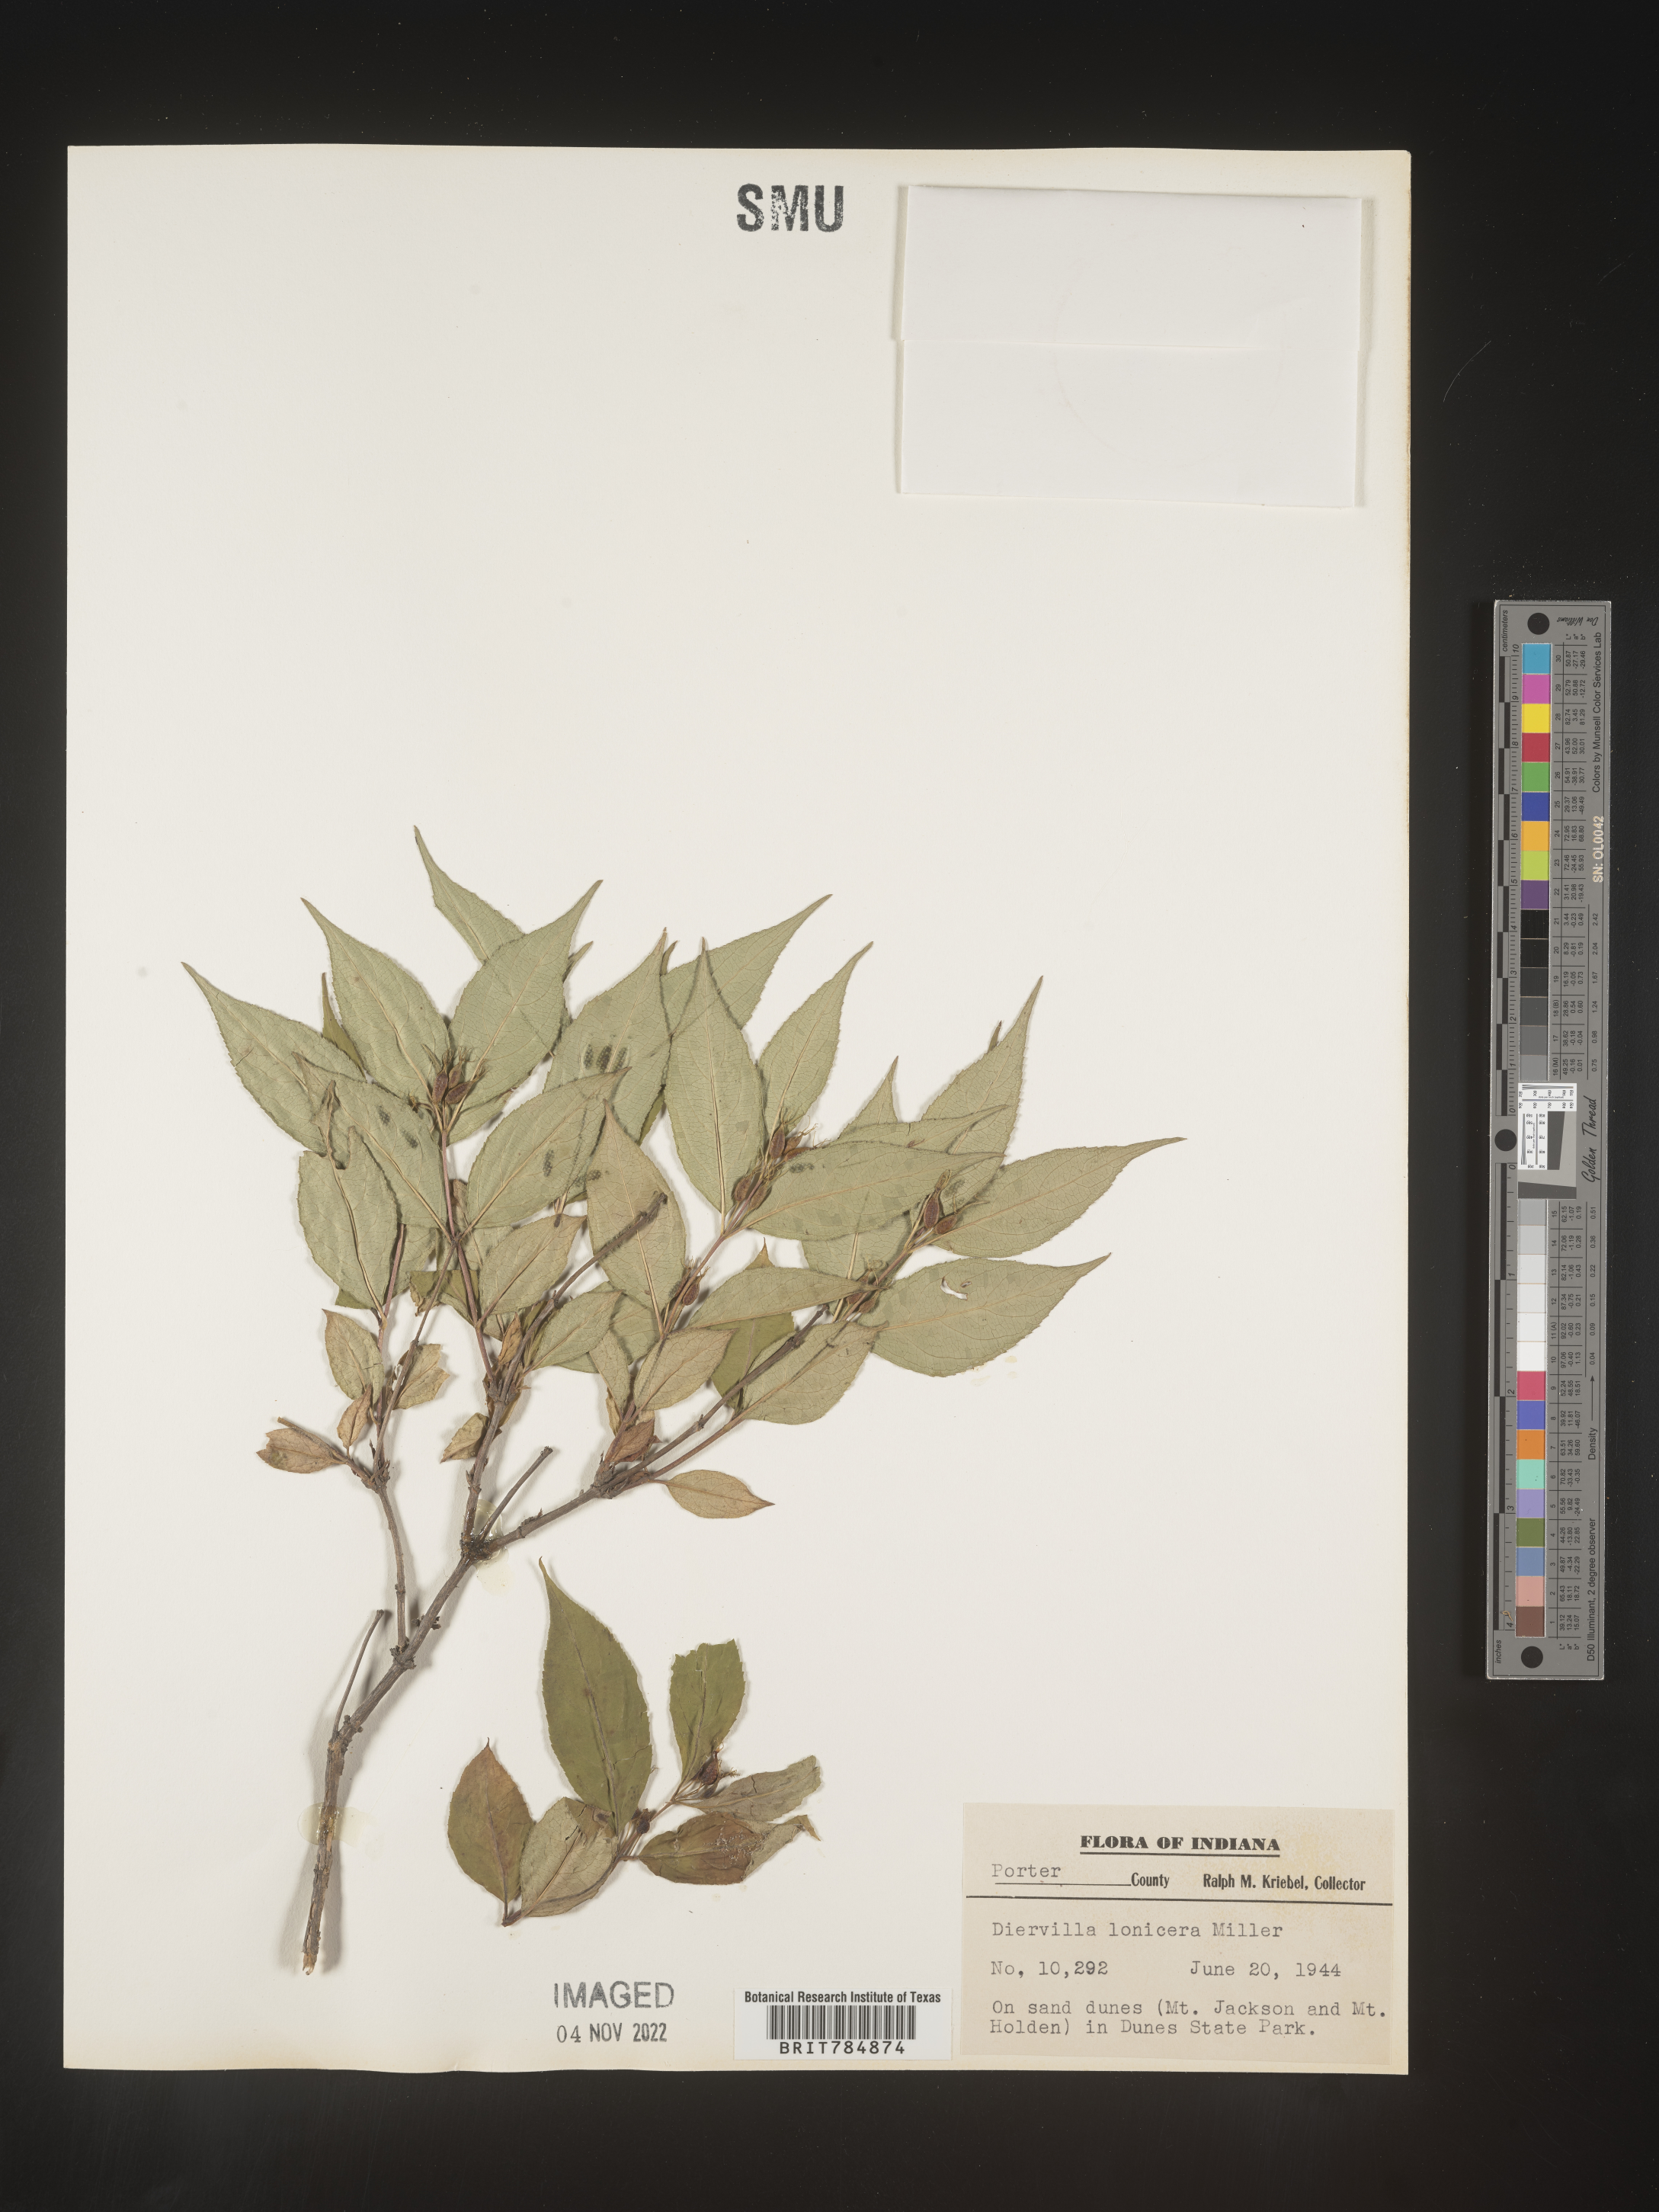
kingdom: Plantae
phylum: Tracheophyta
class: Magnoliopsida
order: Dipsacales
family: Caprifoliaceae
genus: Diervilla
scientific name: Diervilla lonicera
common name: Bush-honeysuckle
